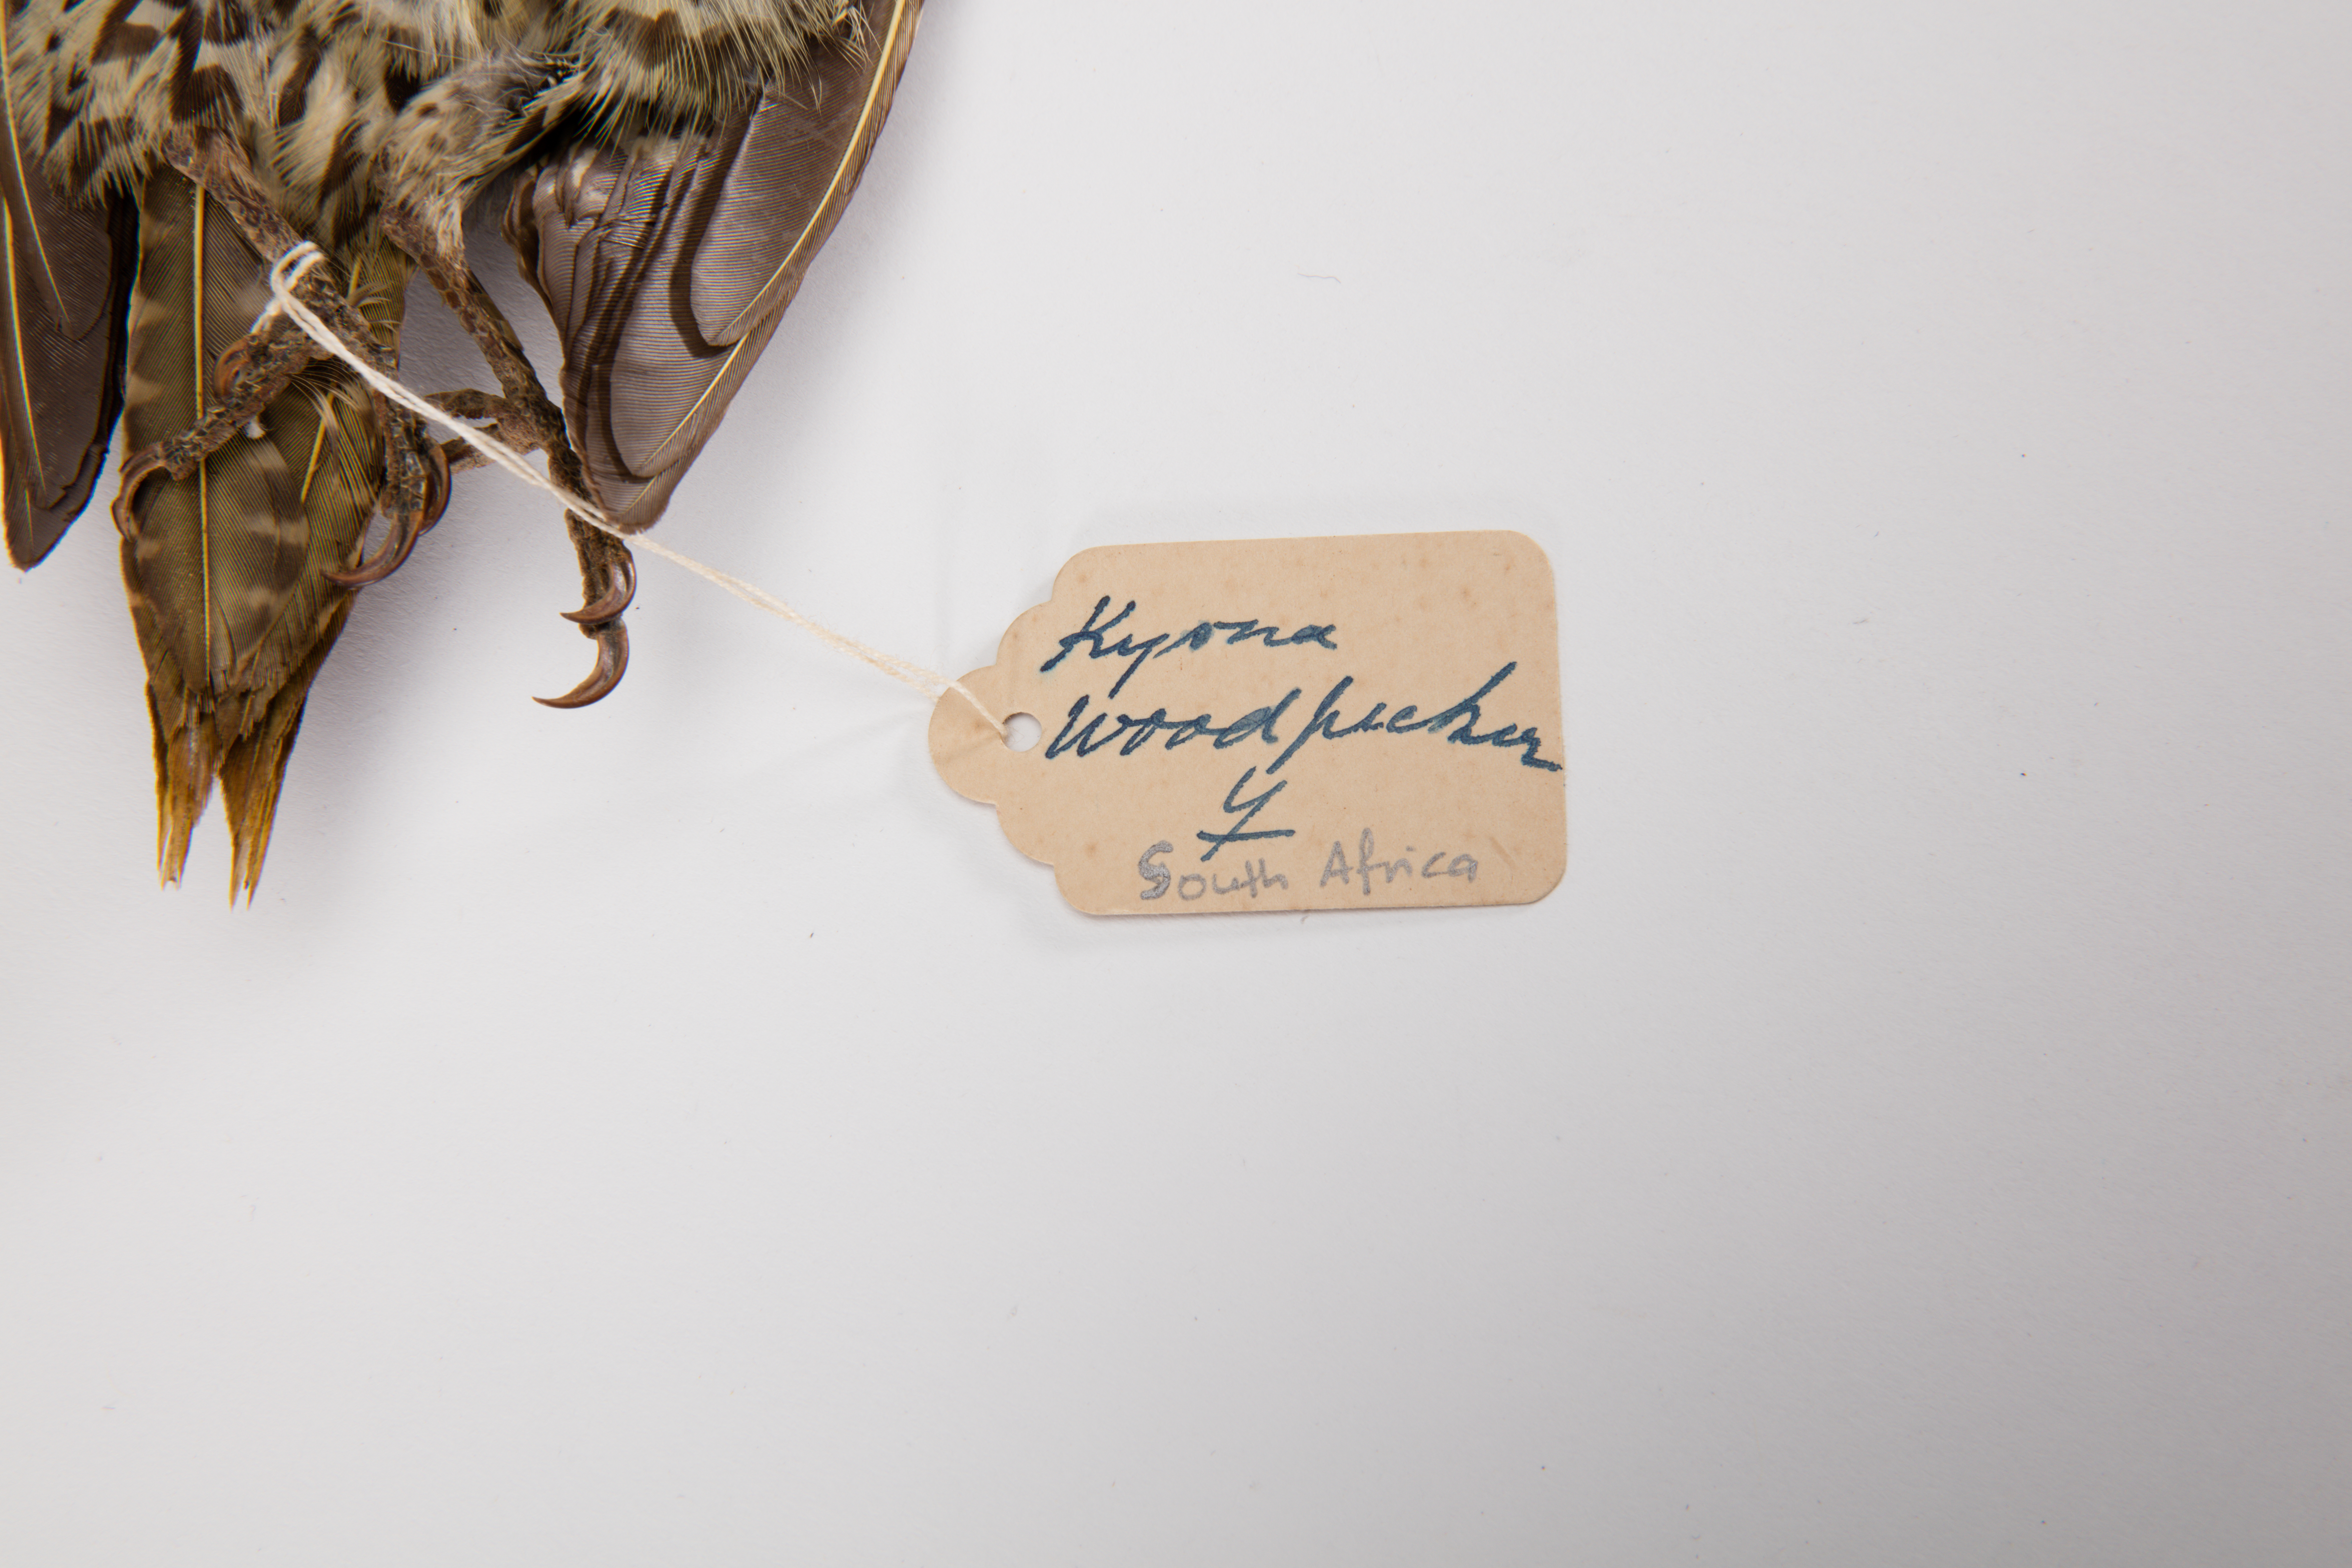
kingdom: Animalia
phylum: Chordata
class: Aves
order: Piciformes
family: Picidae
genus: Campethera
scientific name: Campethera notata
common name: Knysna woodpecker
